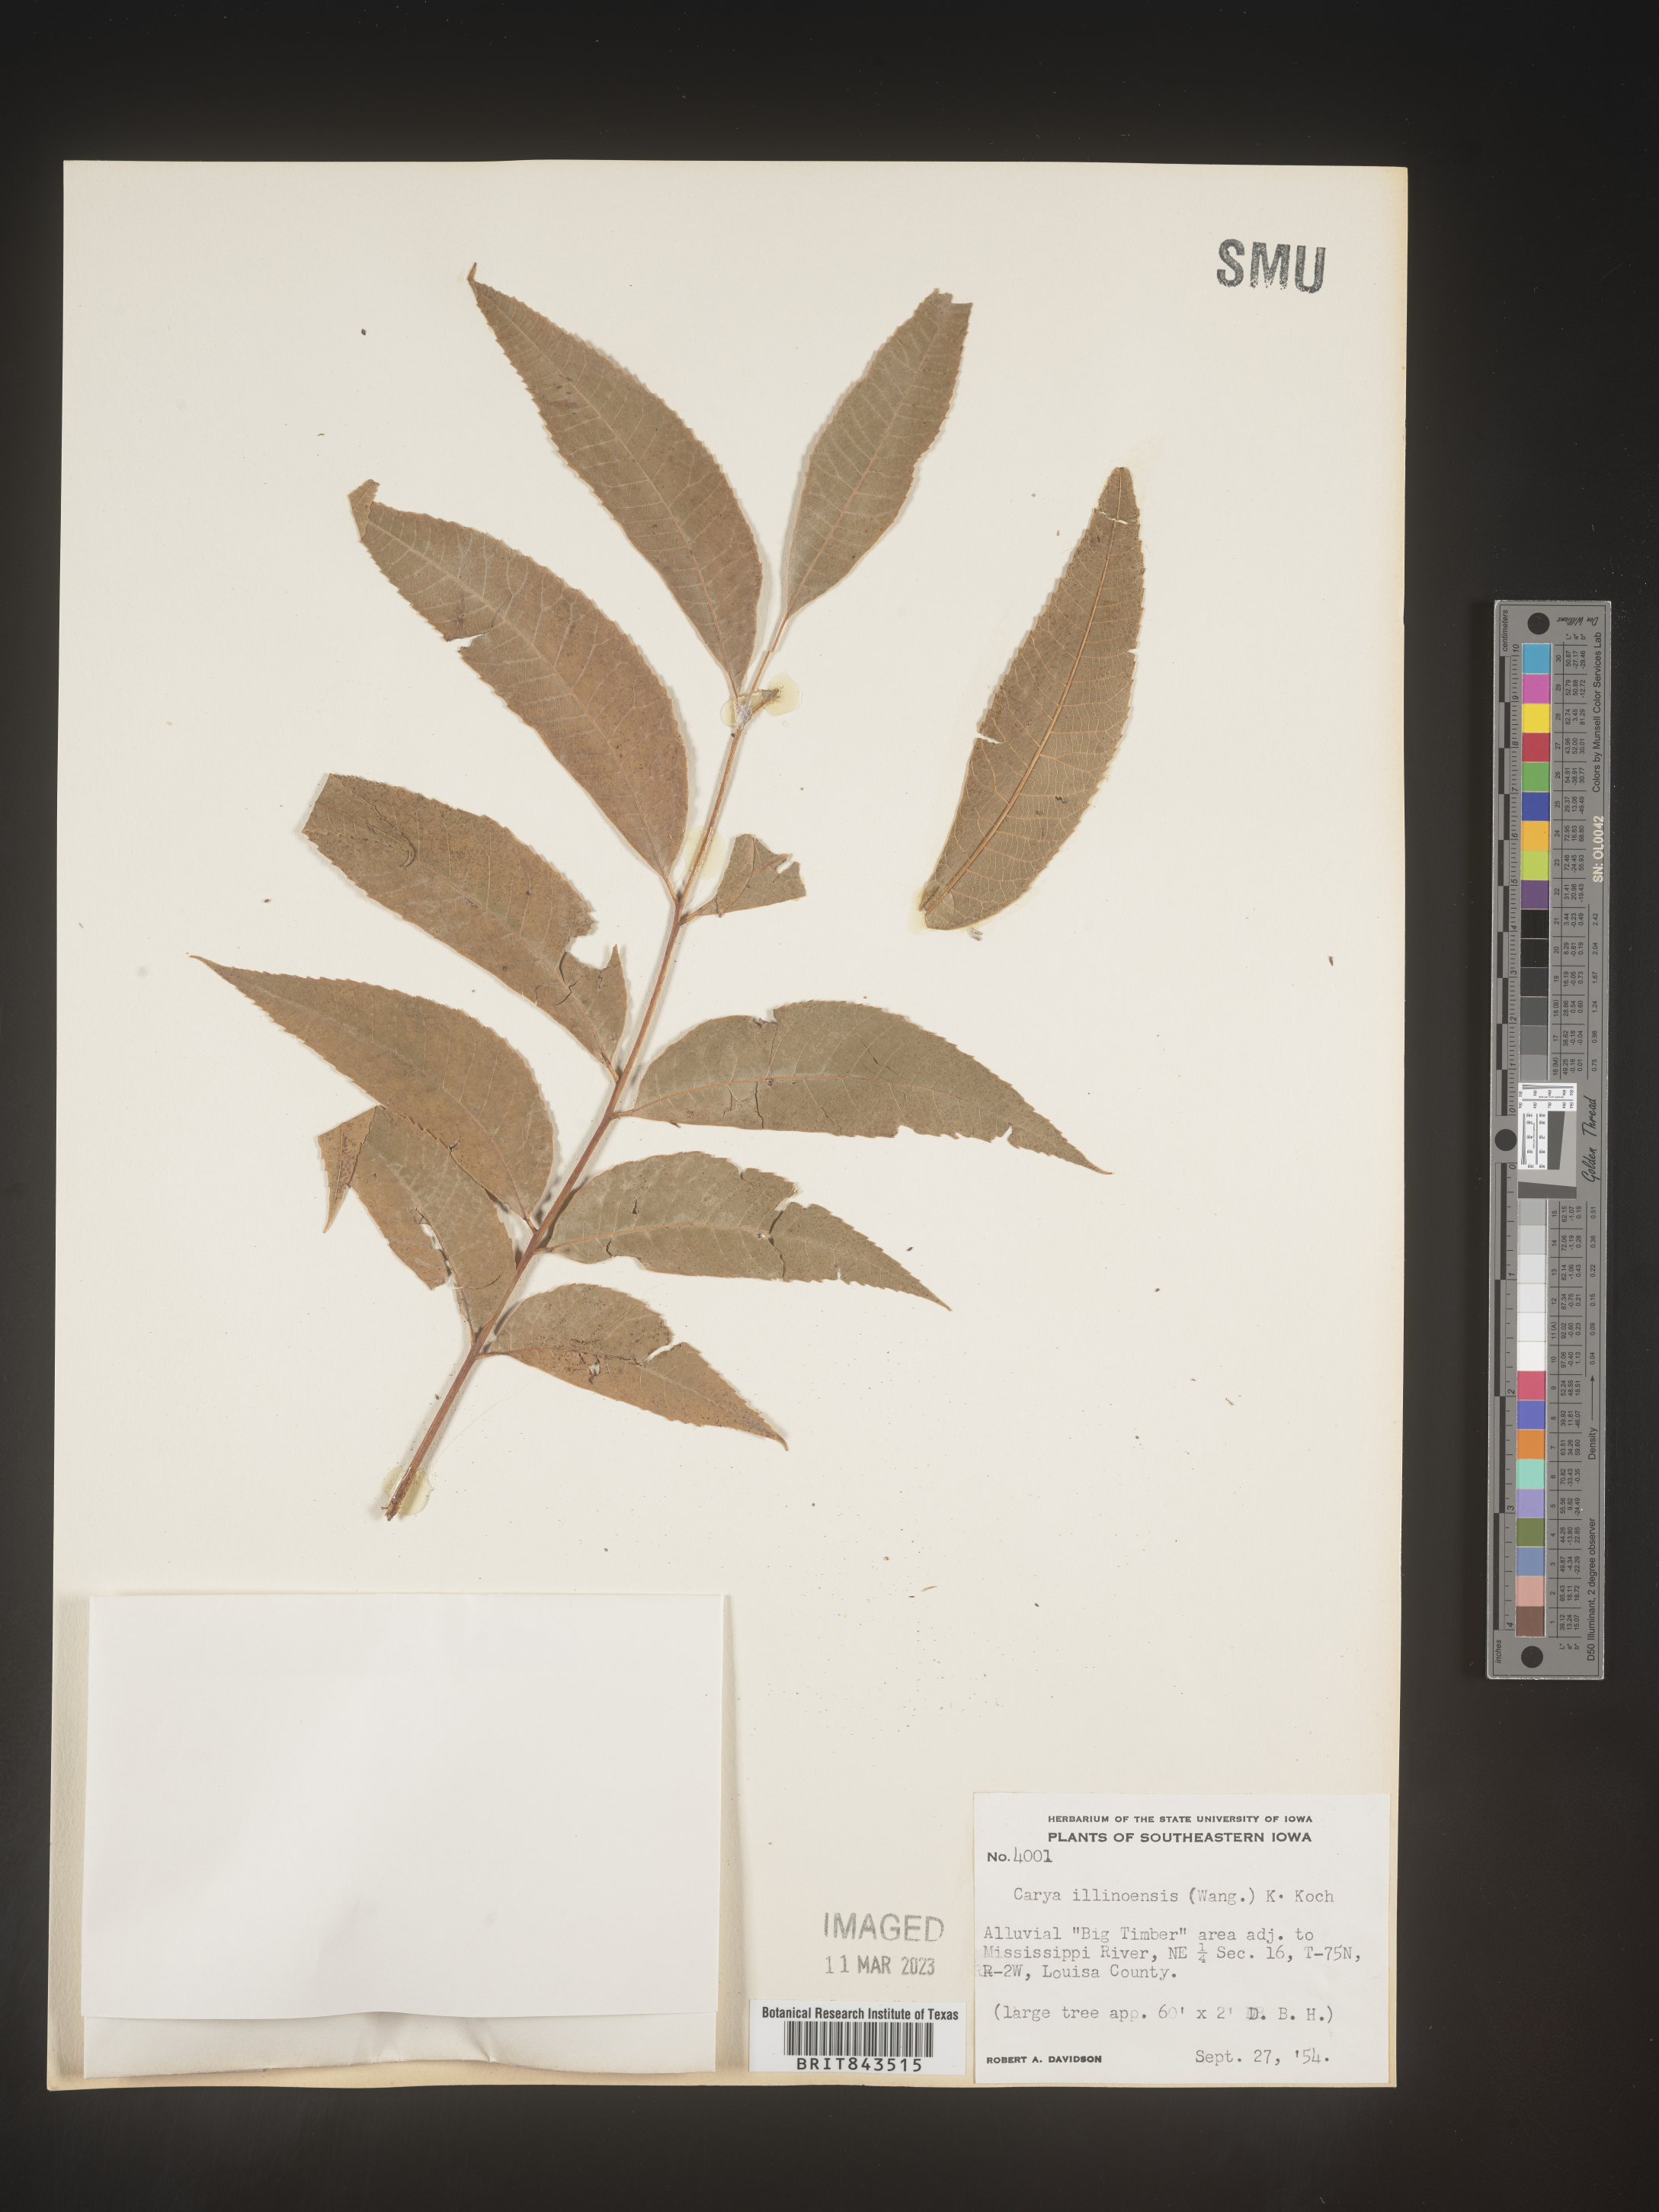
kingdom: Plantae
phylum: Tracheophyta
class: Magnoliopsida
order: Fagales
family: Juglandaceae
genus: Carya
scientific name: Carya illinoinensis
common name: Pecan
